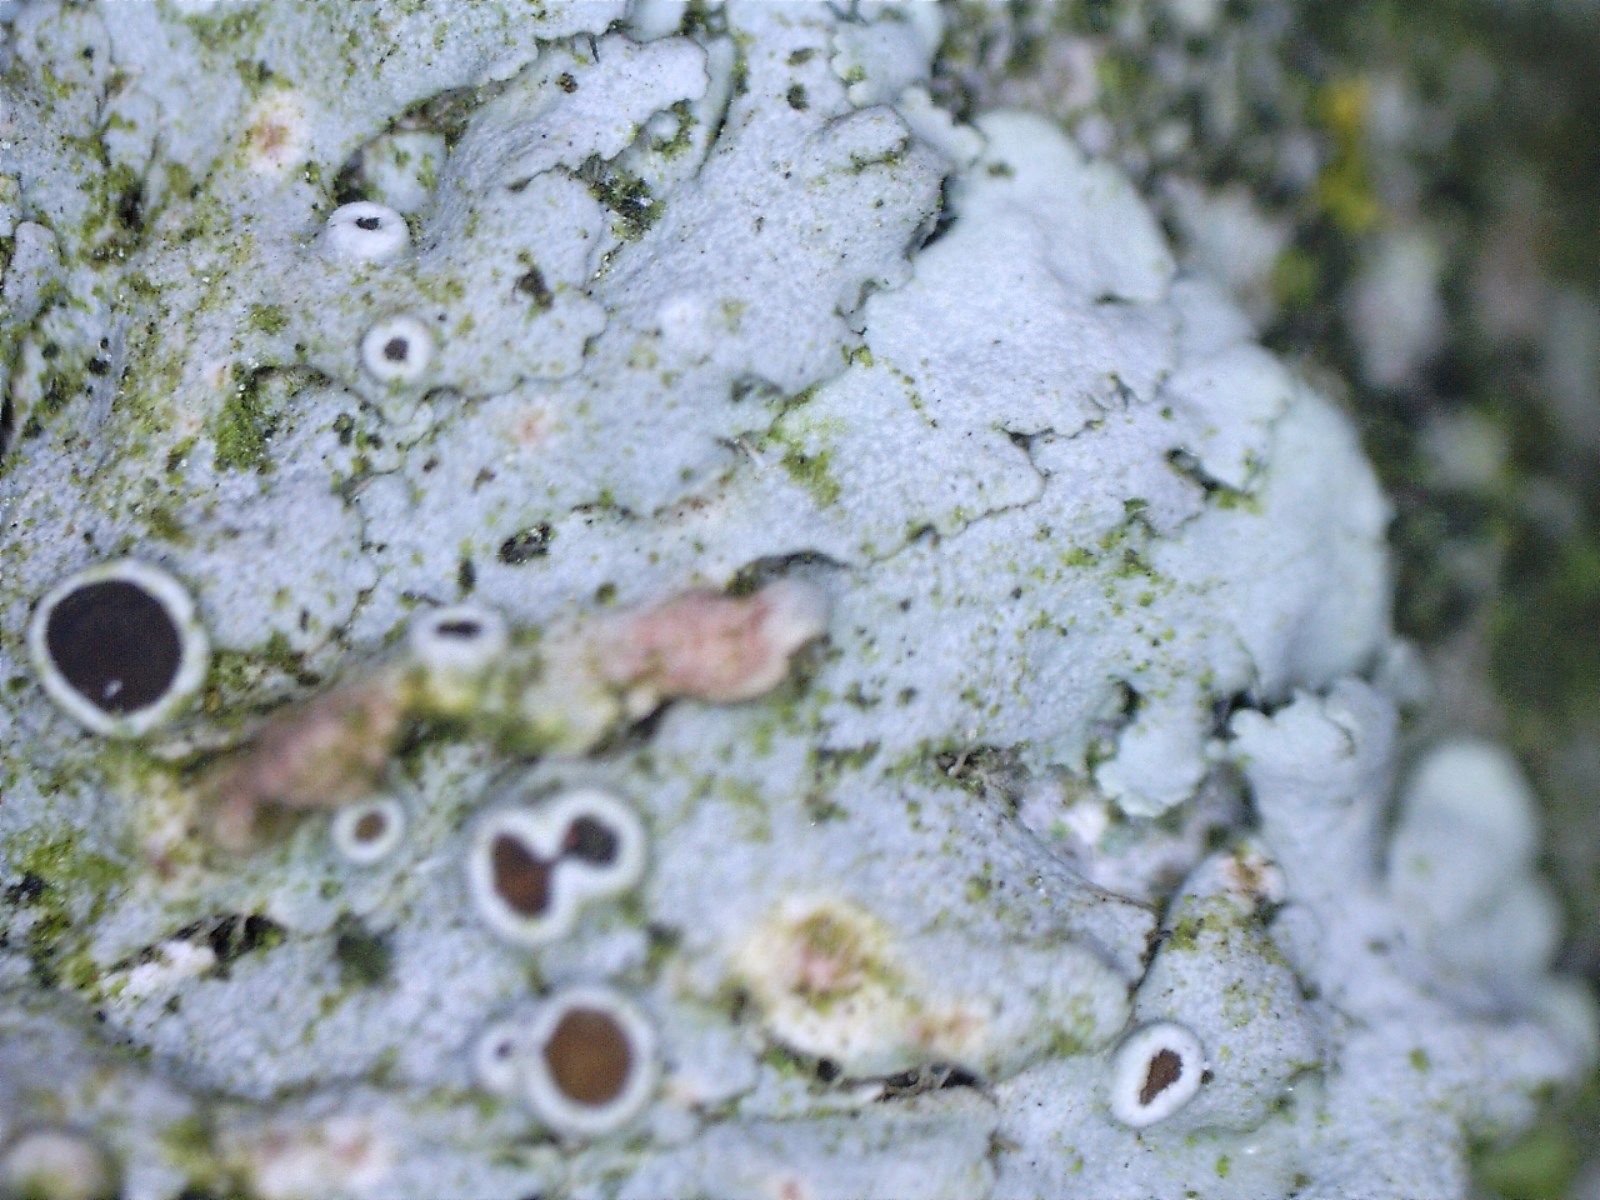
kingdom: Fungi
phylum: Ascomycota
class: Lecanoromycetes
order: Caliciales
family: Physciaceae
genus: Physcia
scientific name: Physcia aipolia
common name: hvidprikket rosetlav
